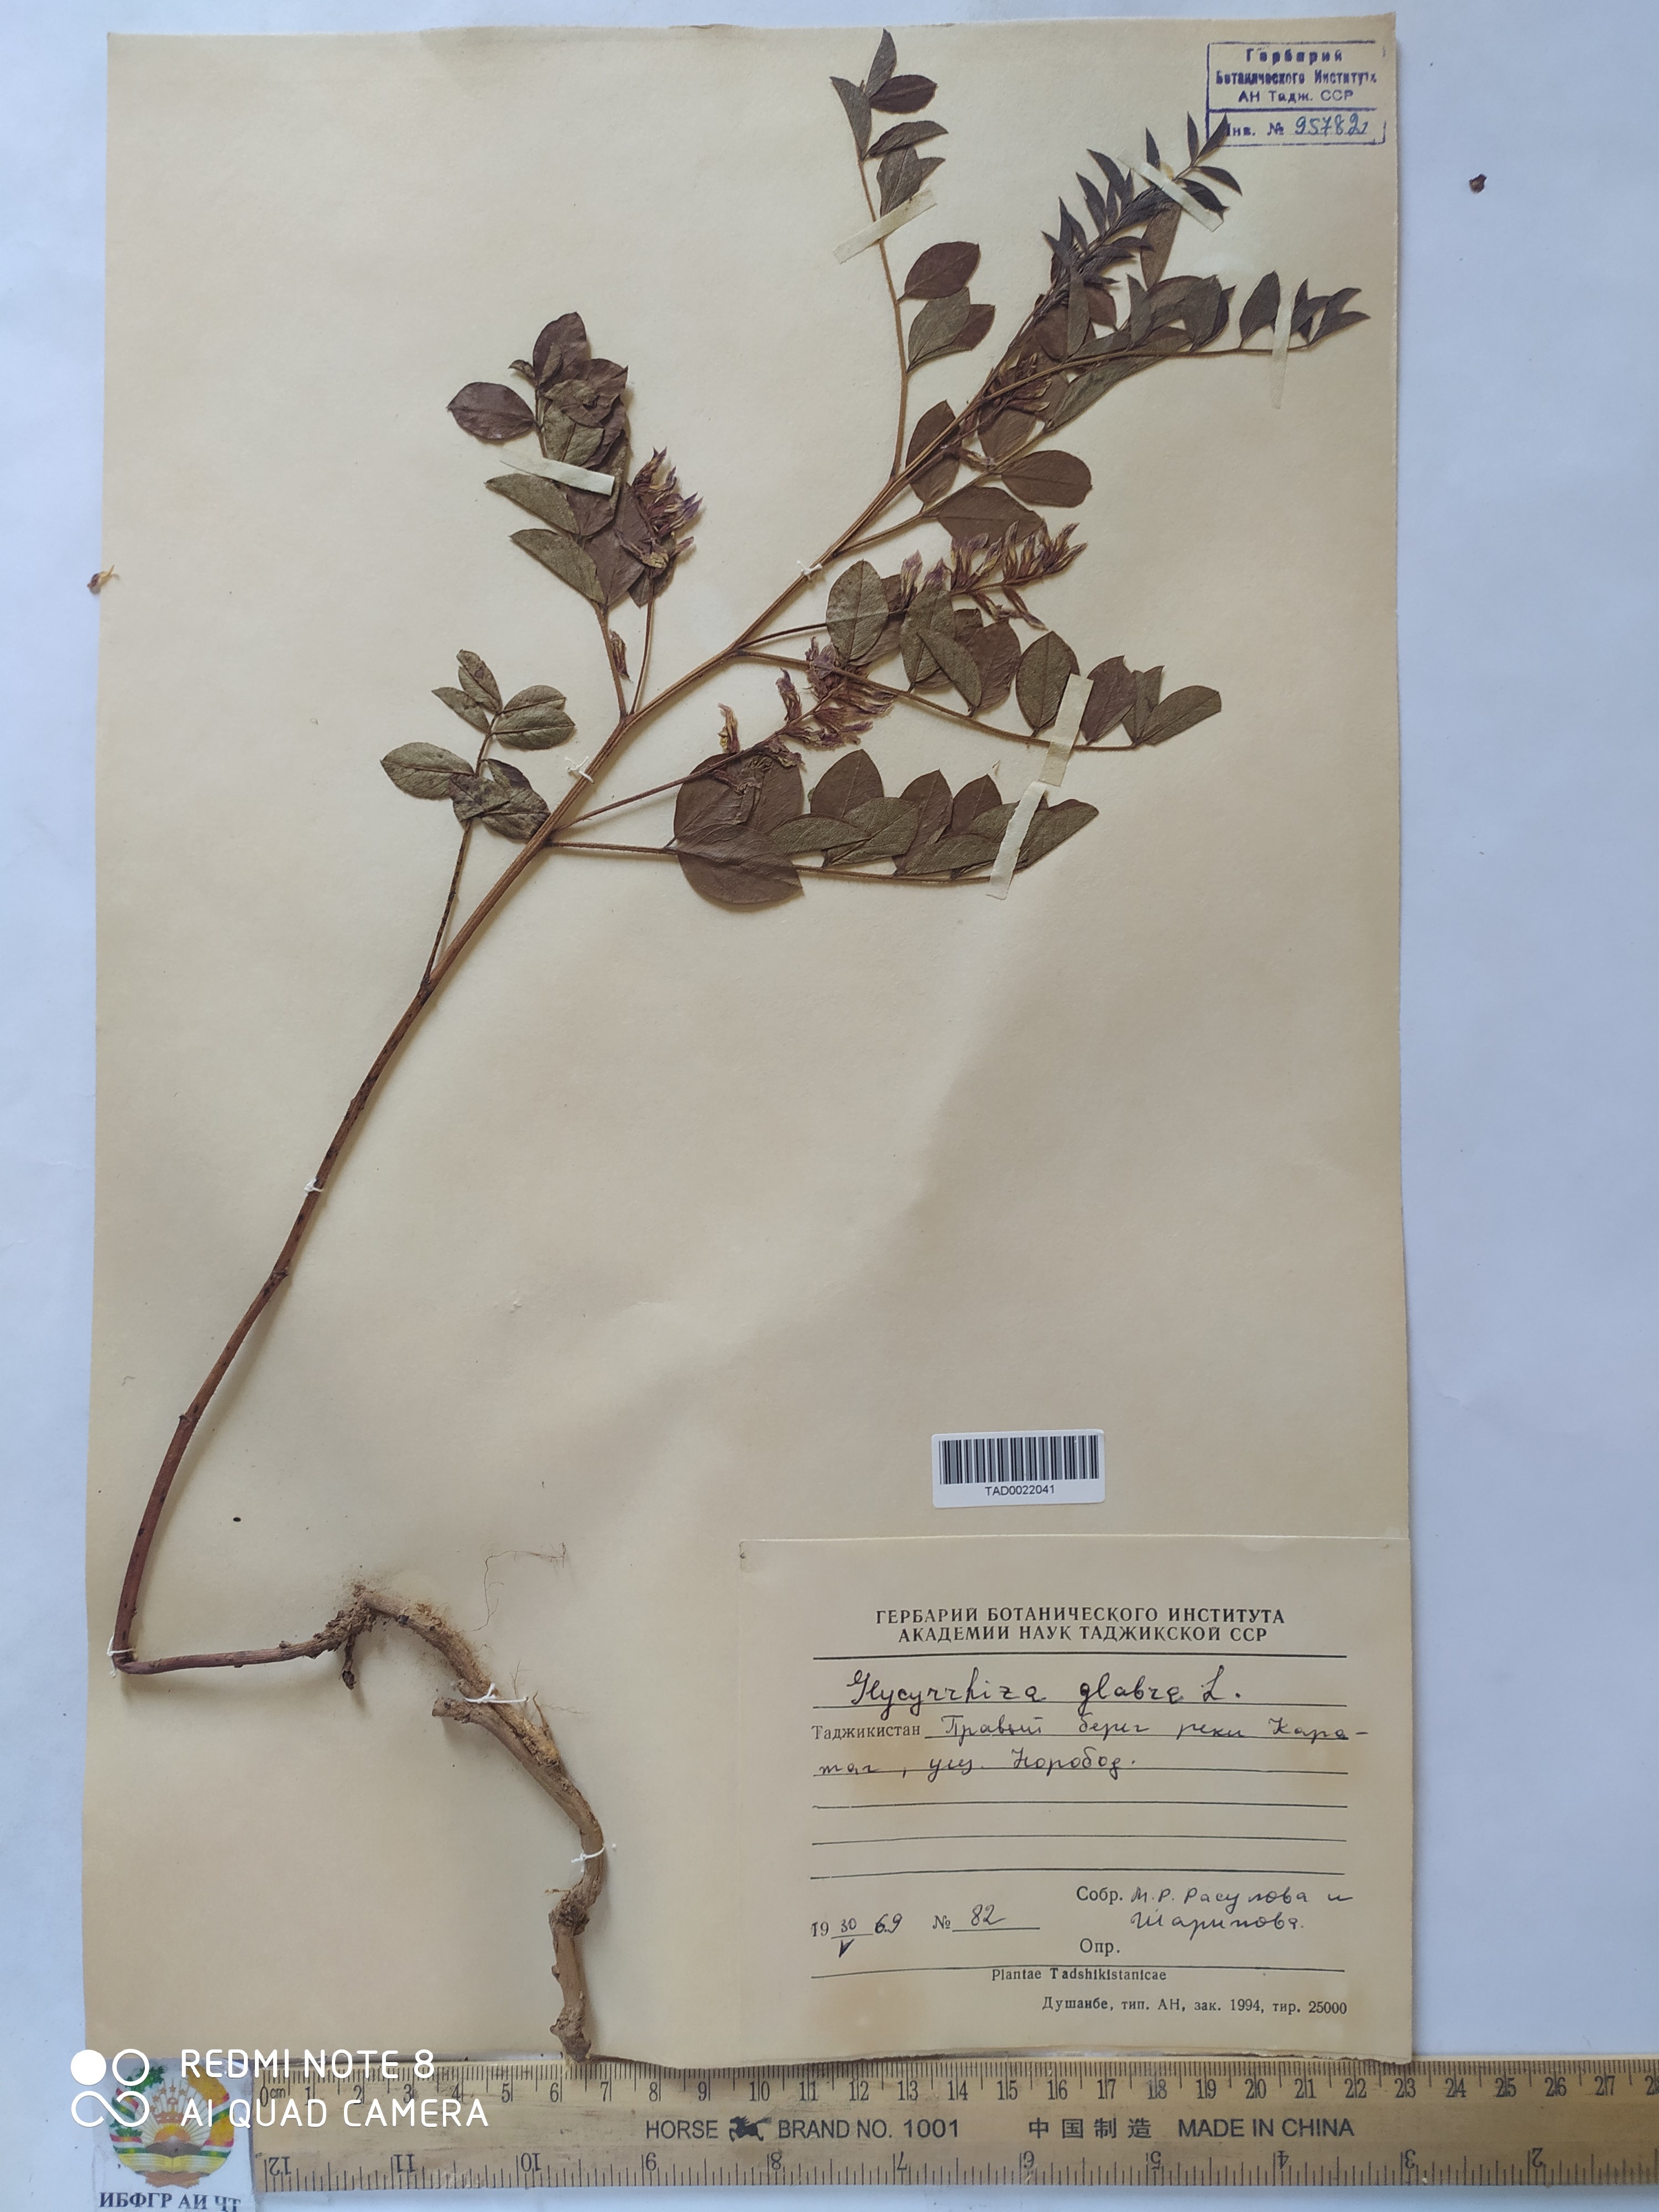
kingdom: Plantae
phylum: Tracheophyta
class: Magnoliopsida
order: Fabales
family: Fabaceae
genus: Glycyrrhiza
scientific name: Glycyrrhiza glabra
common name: Liquorice
